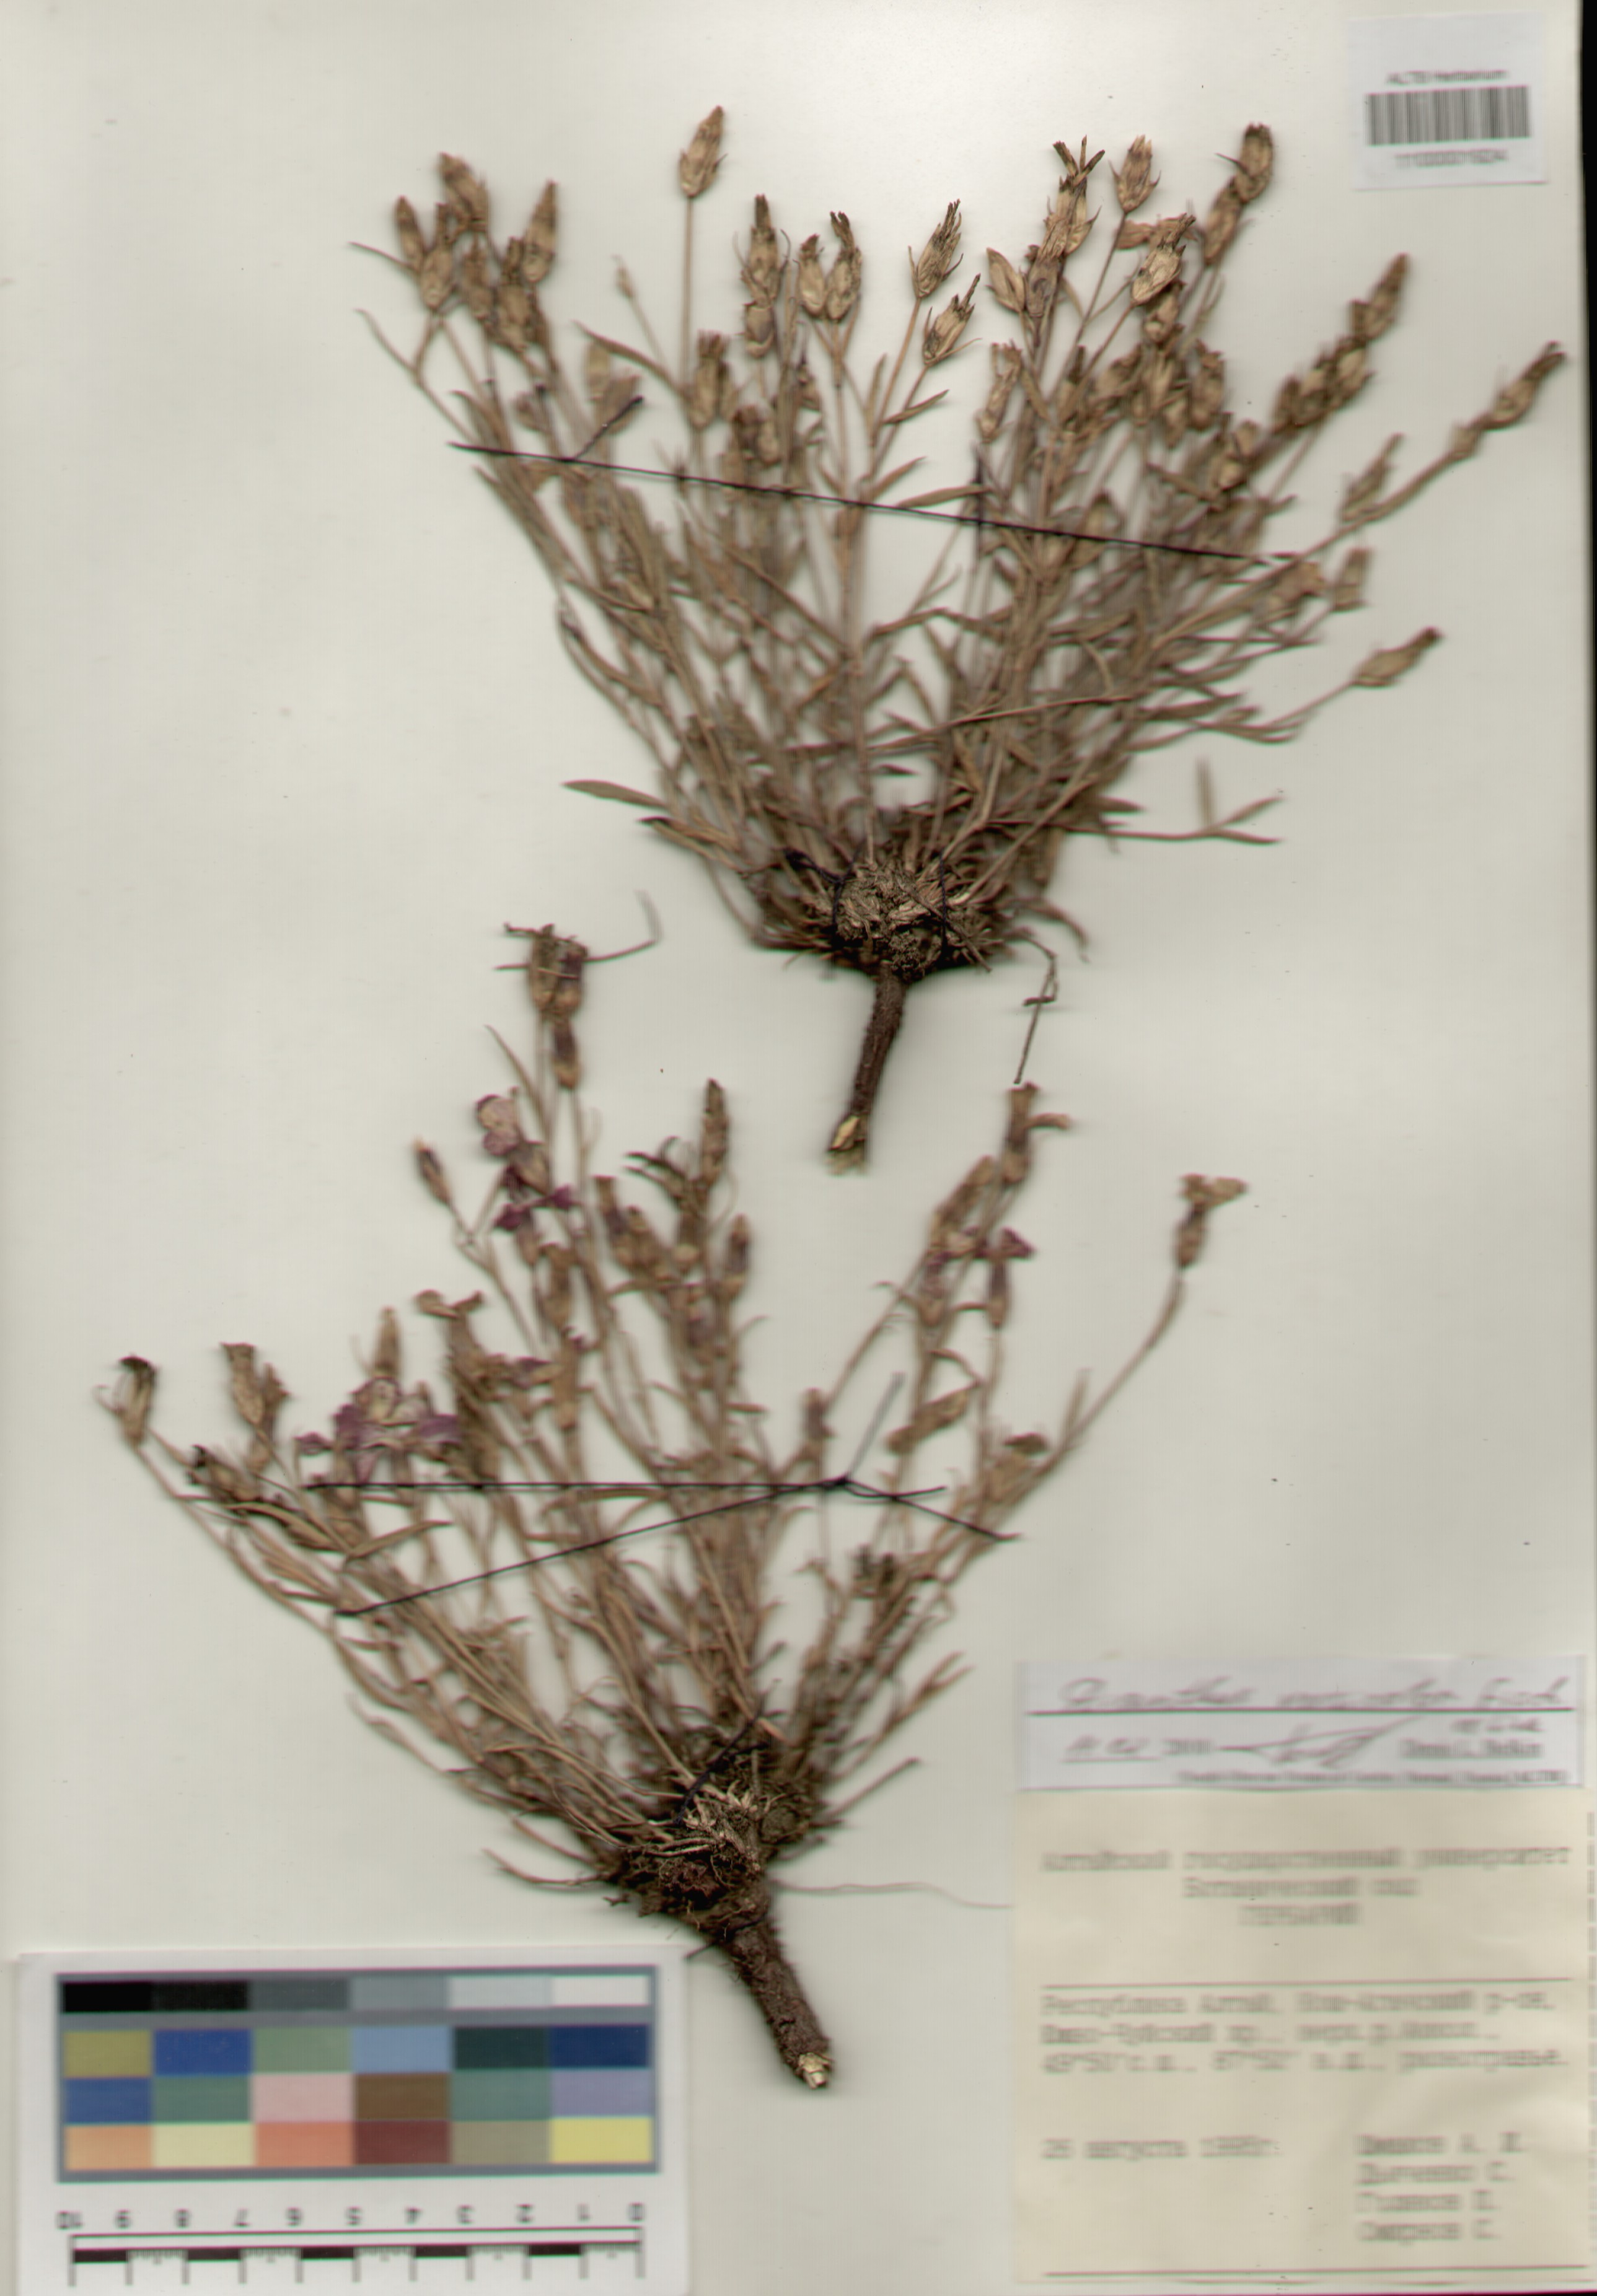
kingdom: Plantae
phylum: Tracheophyta
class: Magnoliopsida
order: Caryophyllales
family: Caryophyllaceae
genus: Dianthus
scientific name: Dianthus chinensis
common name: Rainbow pink
